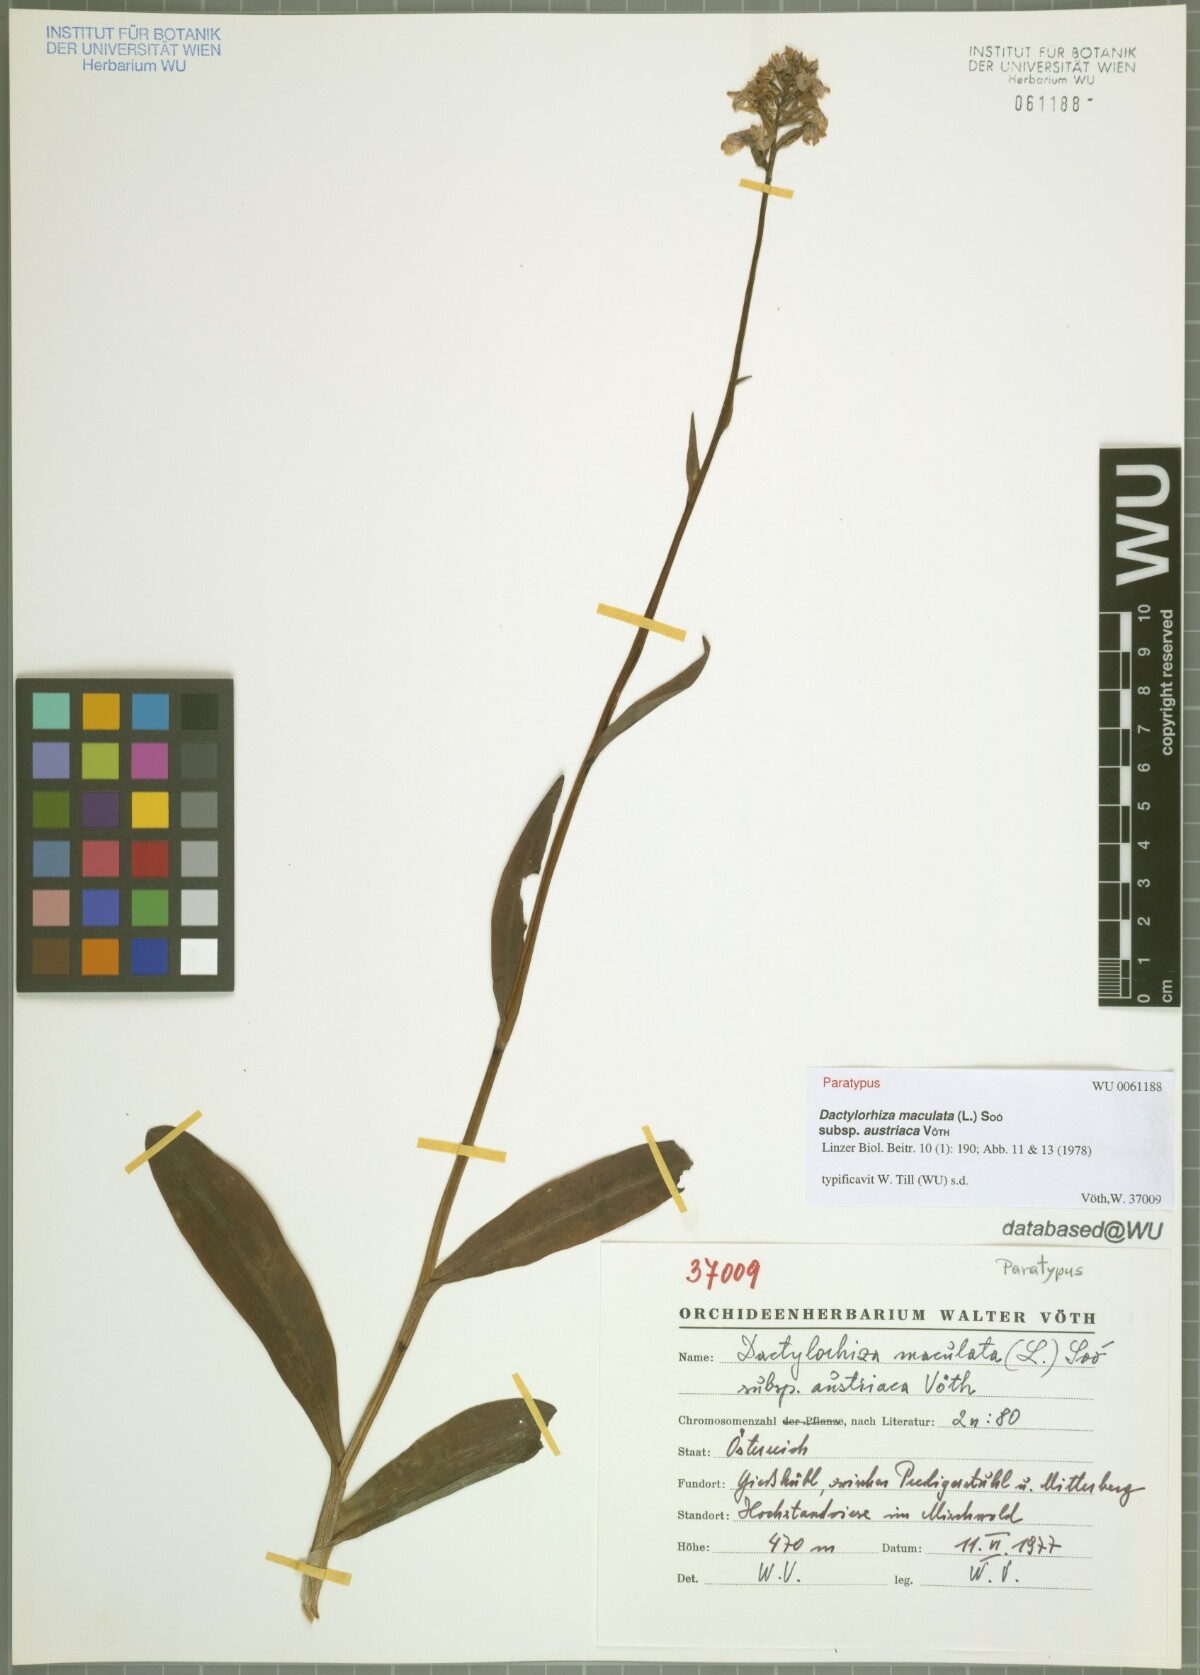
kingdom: Plantae
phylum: Tracheophyta
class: Liliopsida
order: Asparagales
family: Orchidaceae
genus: Dactylorhiza
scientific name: Dactylorhiza maculata
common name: Heath spotted-orchid
